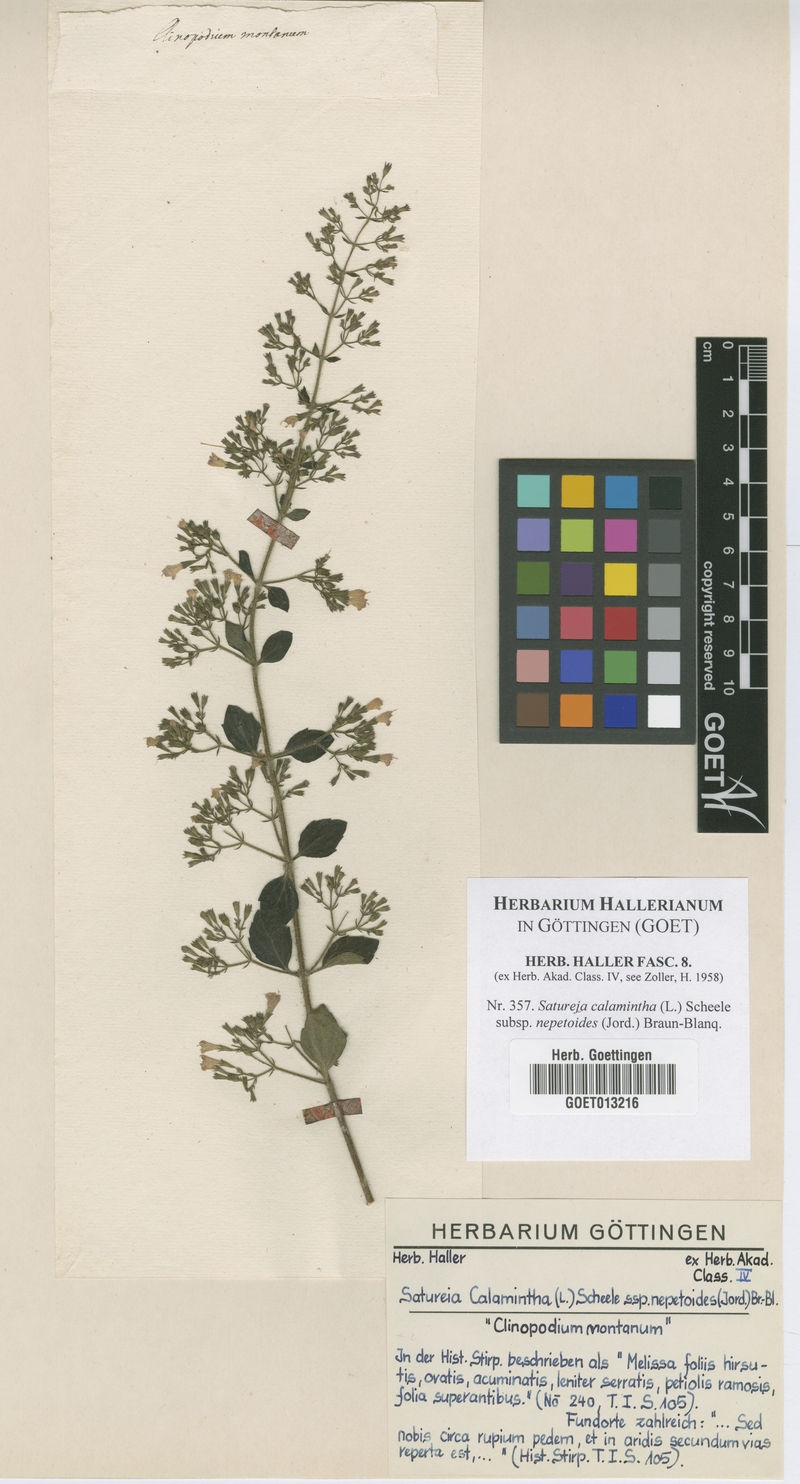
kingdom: Plantae
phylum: Tracheophyta
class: Magnoliopsida
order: Lamiales
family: Lamiaceae
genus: Clinopodium
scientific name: Clinopodium nepeta
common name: Lesser calamint
